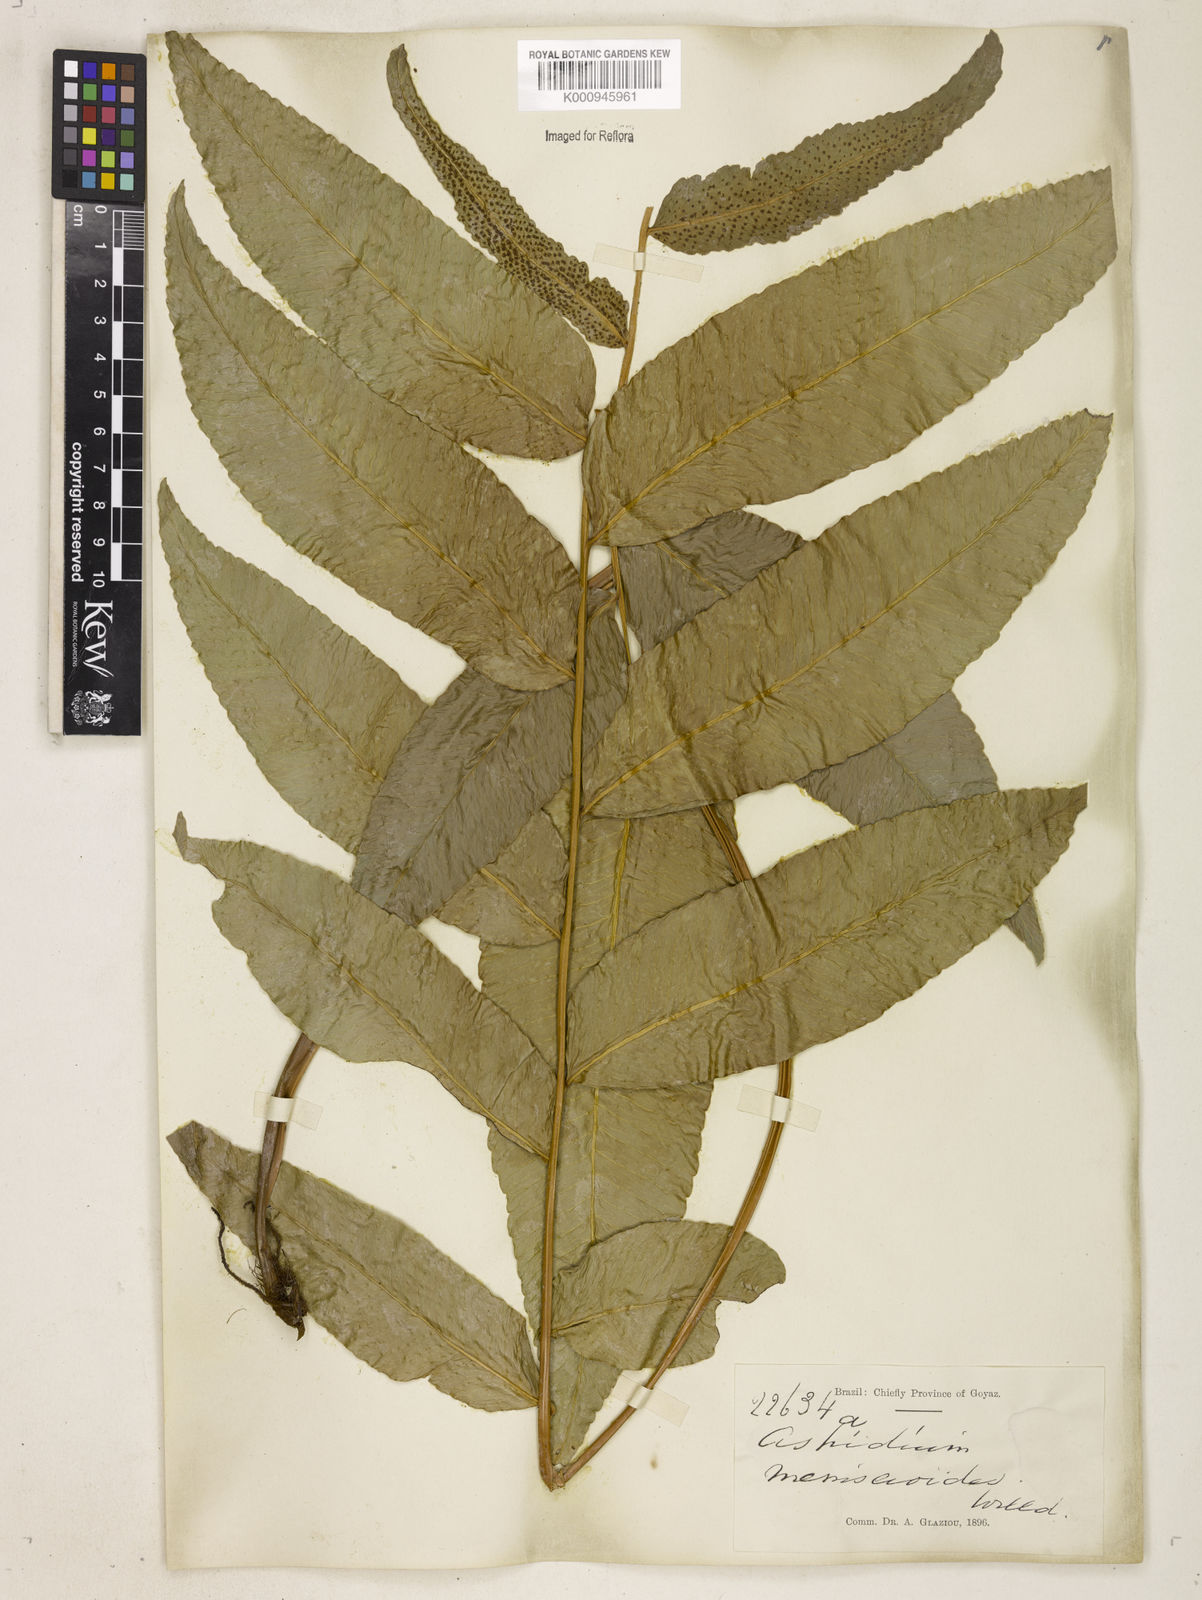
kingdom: Plantae
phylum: Tracheophyta
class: Polypodiopsida
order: Polypodiales
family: Dryopteridaceae
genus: Cyclodium
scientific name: Cyclodium meniscioides
